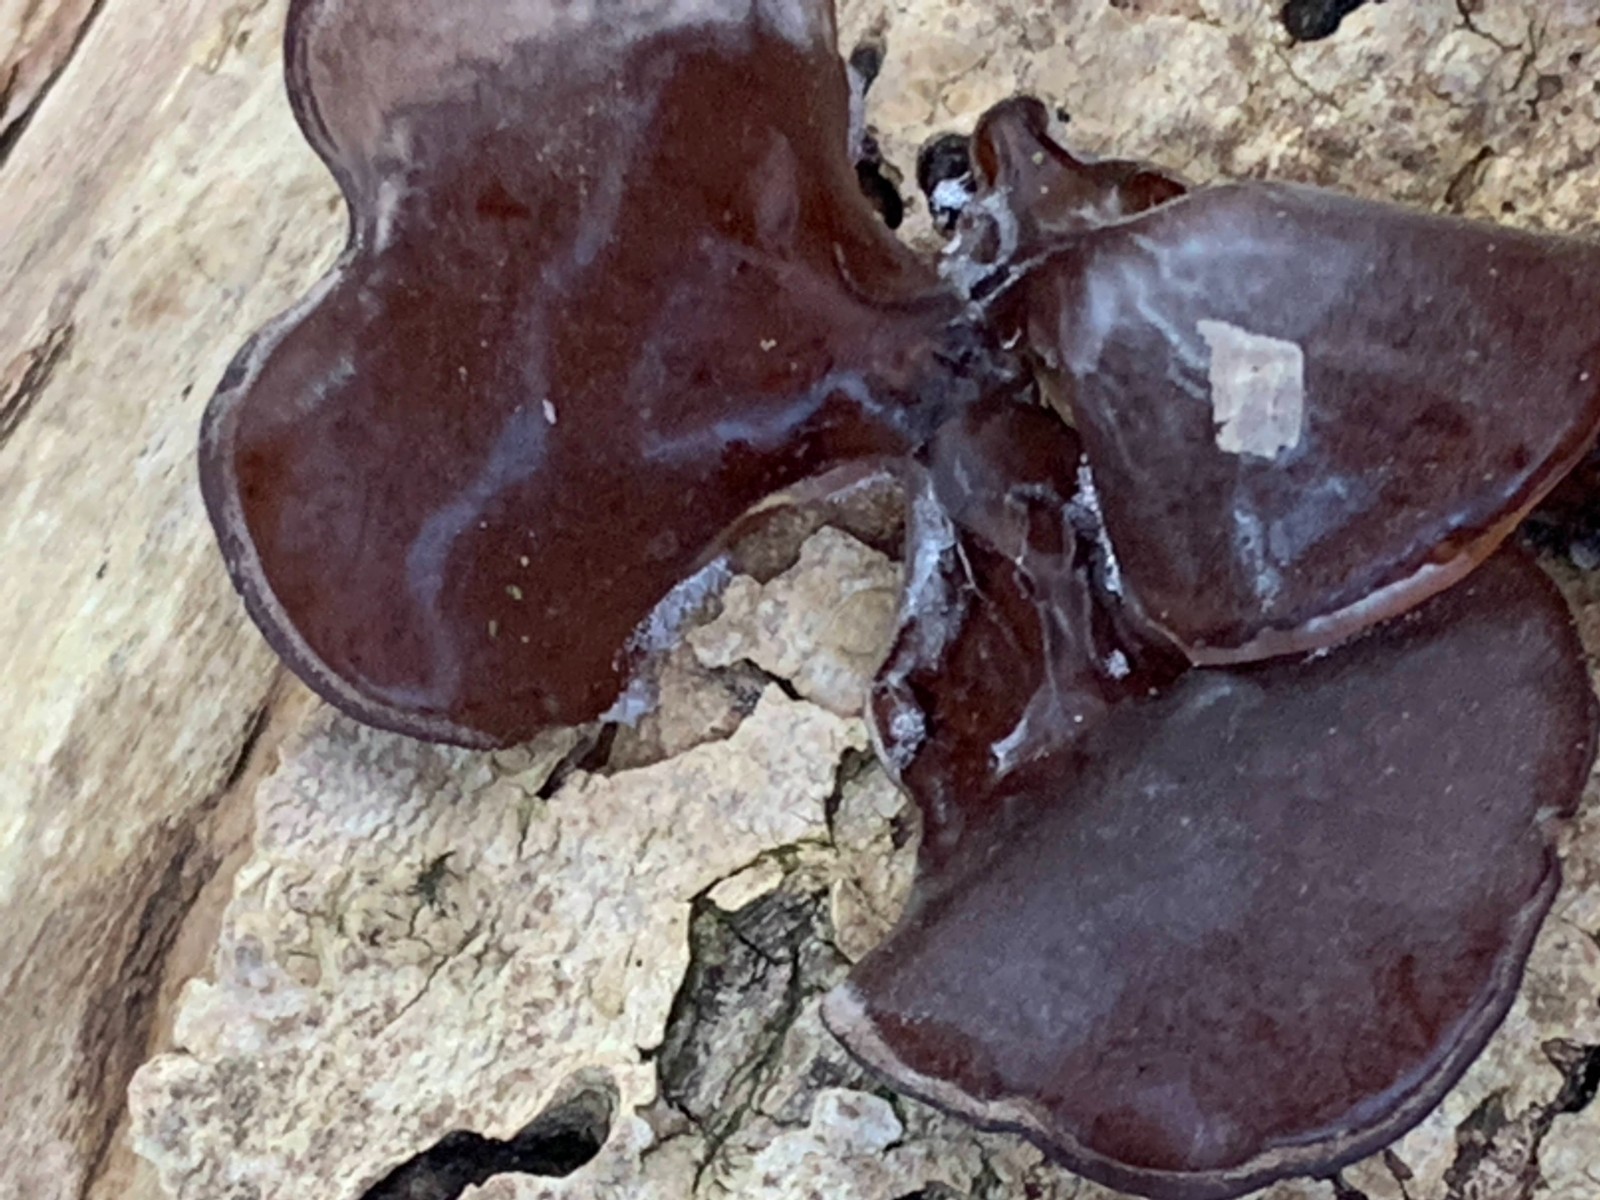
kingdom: Fungi
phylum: Basidiomycota
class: Agaricomycetes
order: Auriculariales
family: Auriculariaceae
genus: Auricularia
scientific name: Auricularia auricula-judae
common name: almindelig judasøre
